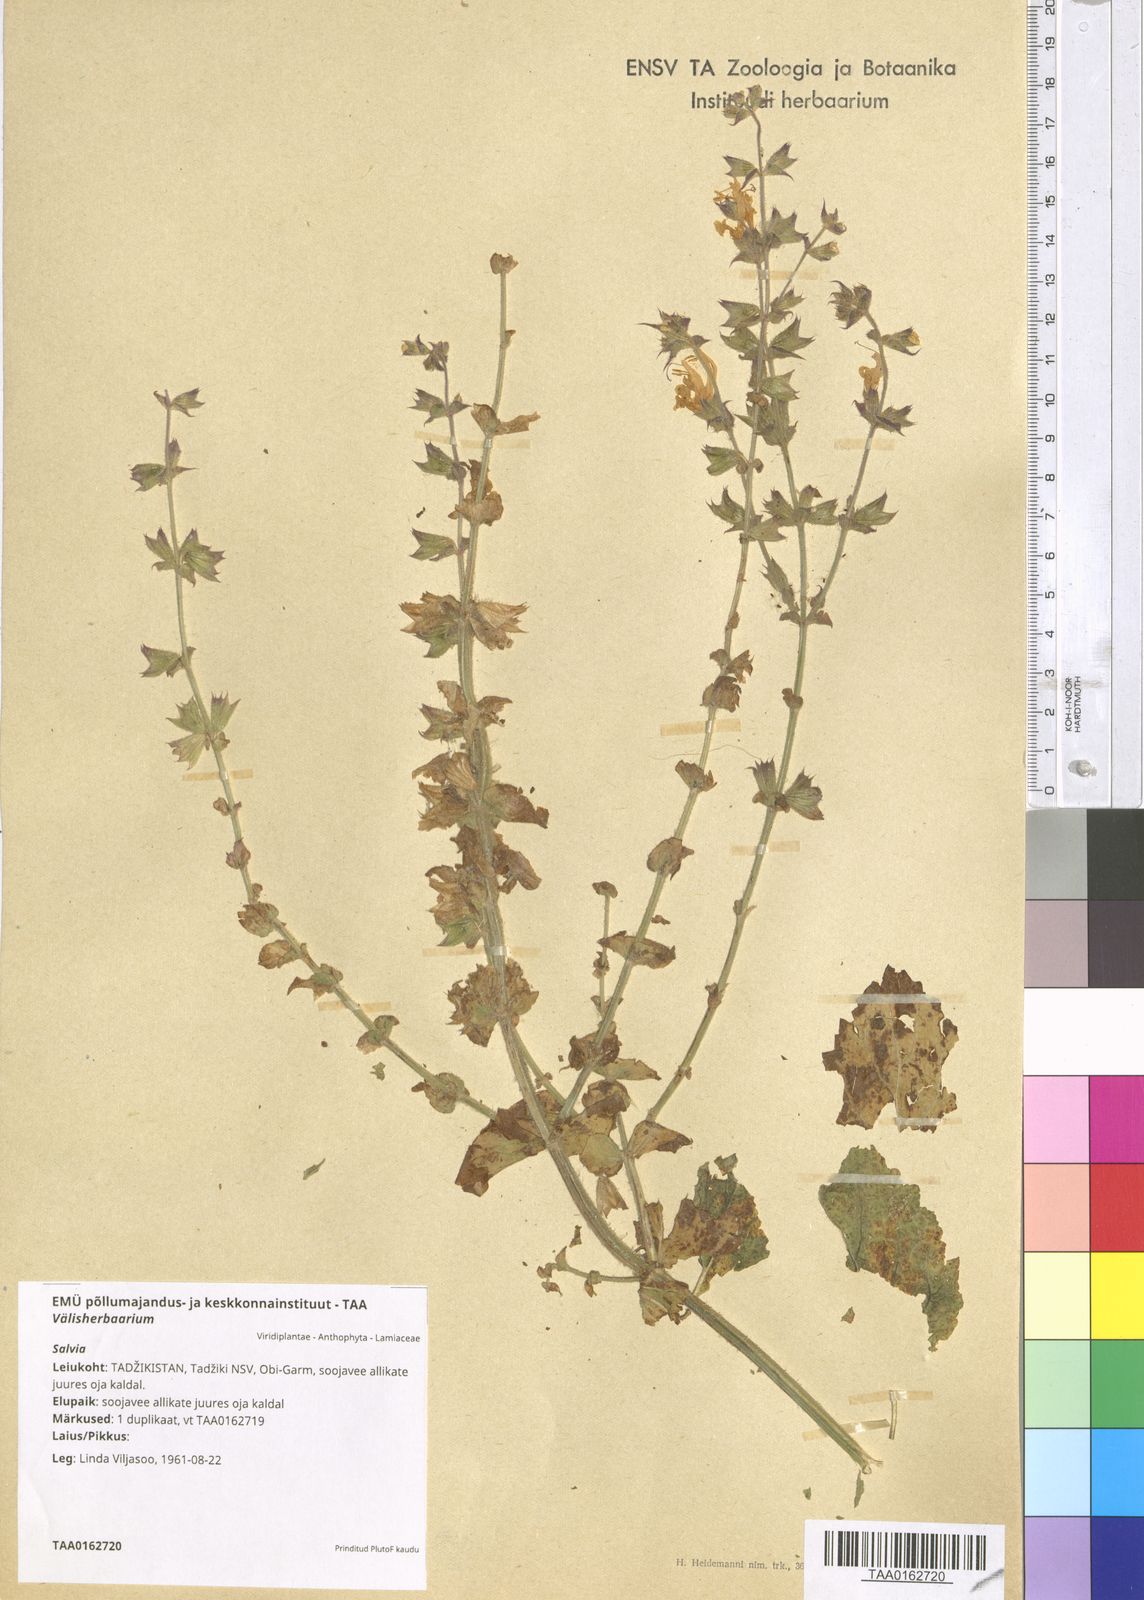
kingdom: Plantae
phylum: Tracheophyta
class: Magnoliopsida
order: Lamiales
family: Lamiaceae
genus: Salvia
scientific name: Salvia
